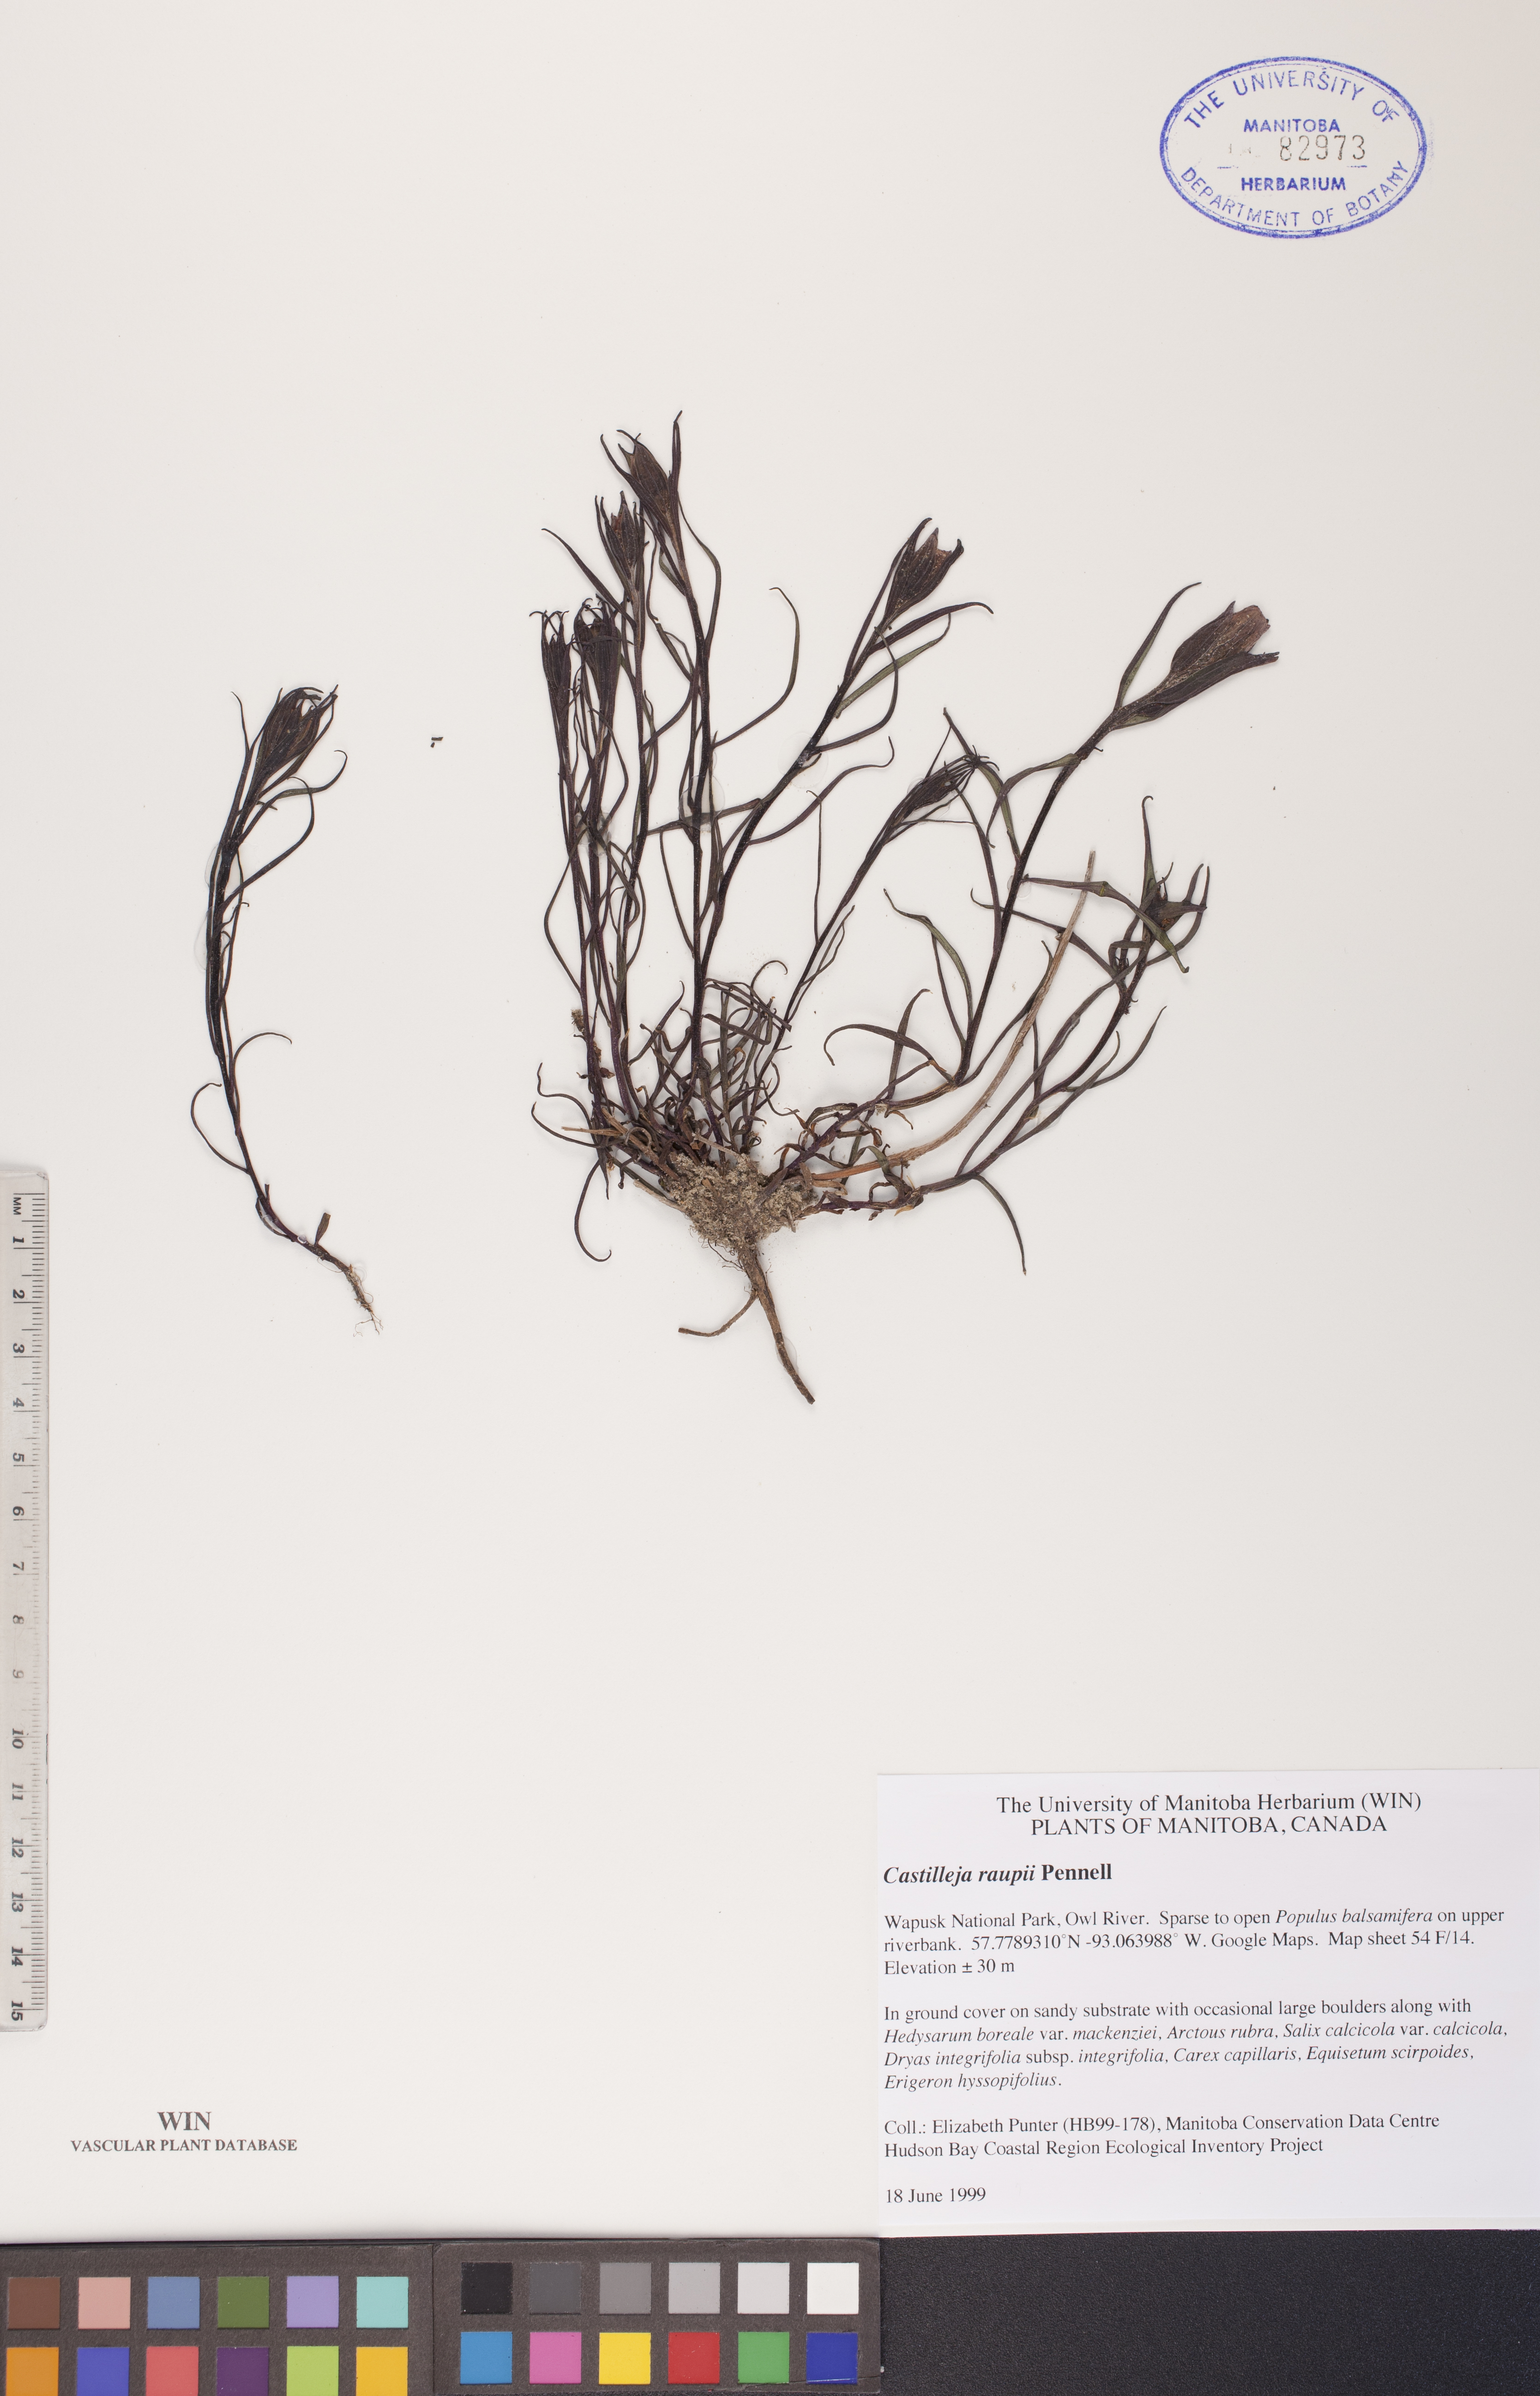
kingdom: Plantae
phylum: Tracheophyta
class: Magnoliopsida
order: Lamiales
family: Orobanchaceae
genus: Castilleja
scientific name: Castilleja raupii
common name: Raup's paintbrush
